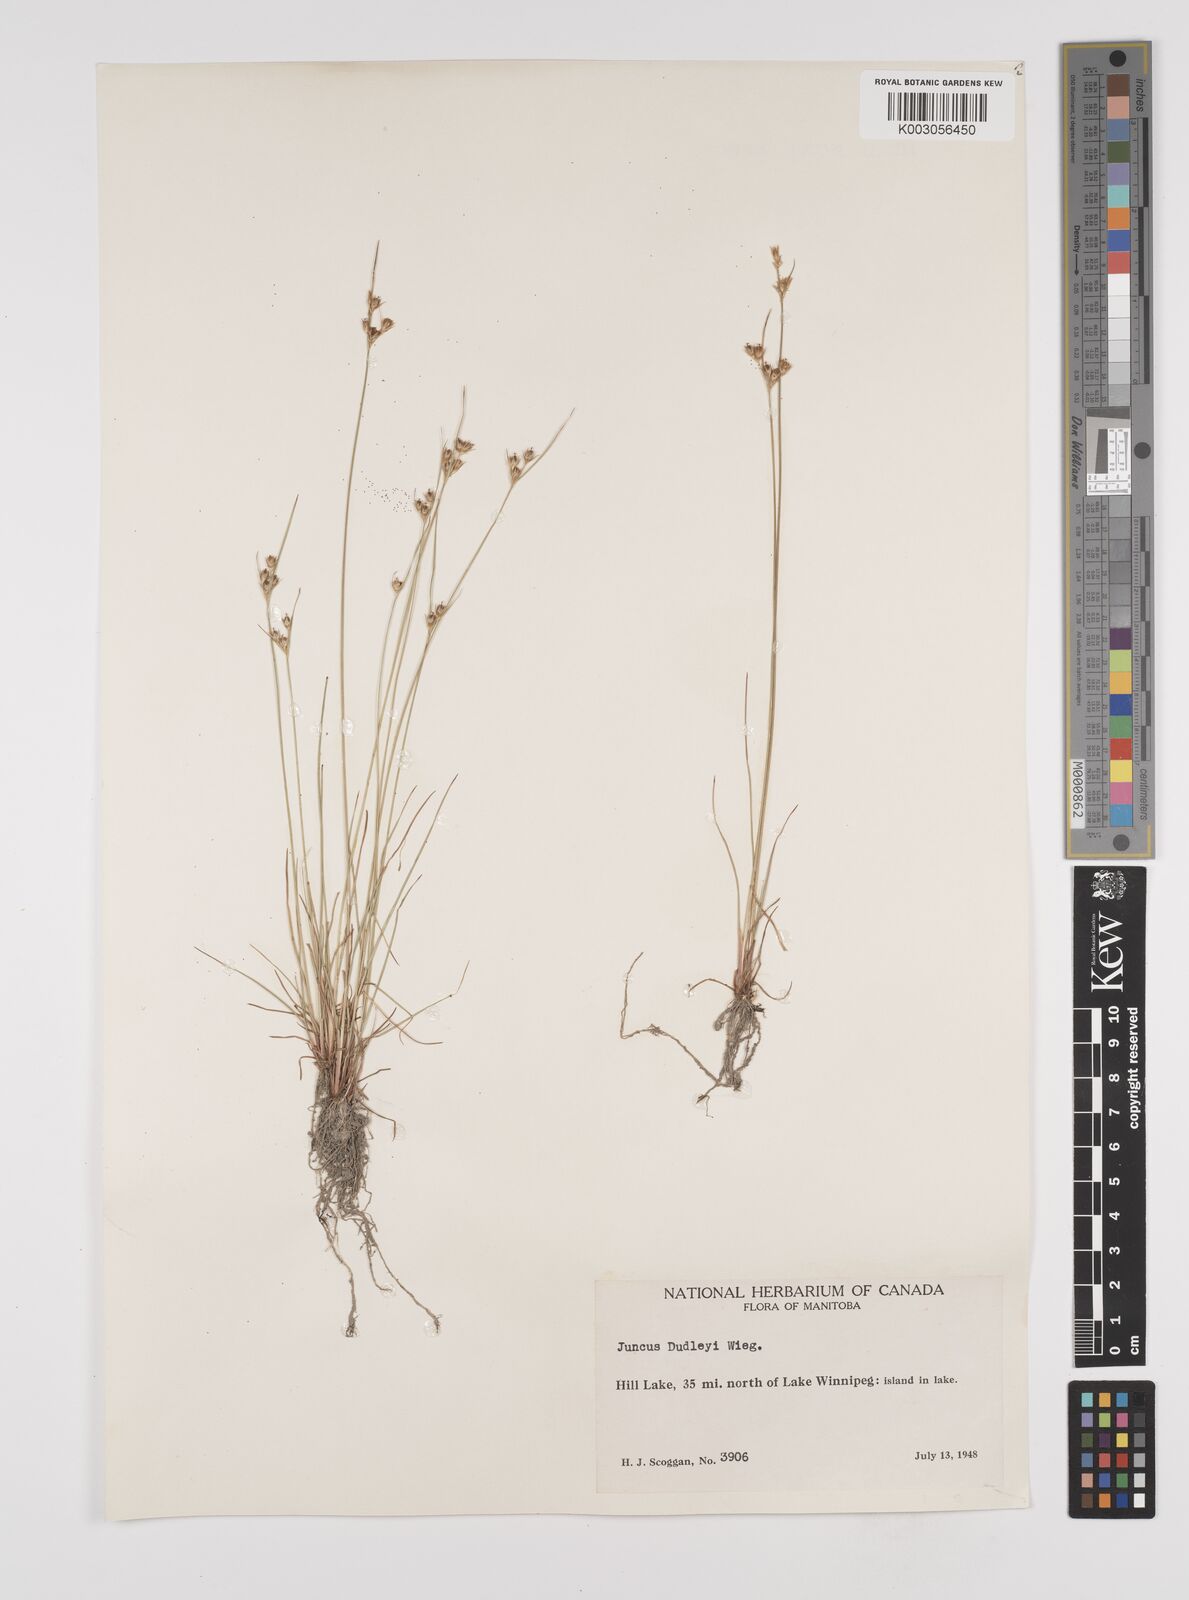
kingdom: Plantae
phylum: Tracheophyta
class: Liliopsida
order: Poales
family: Juncaceae
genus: Juncus
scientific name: Juncus dudleyi
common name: Dudley's rush
